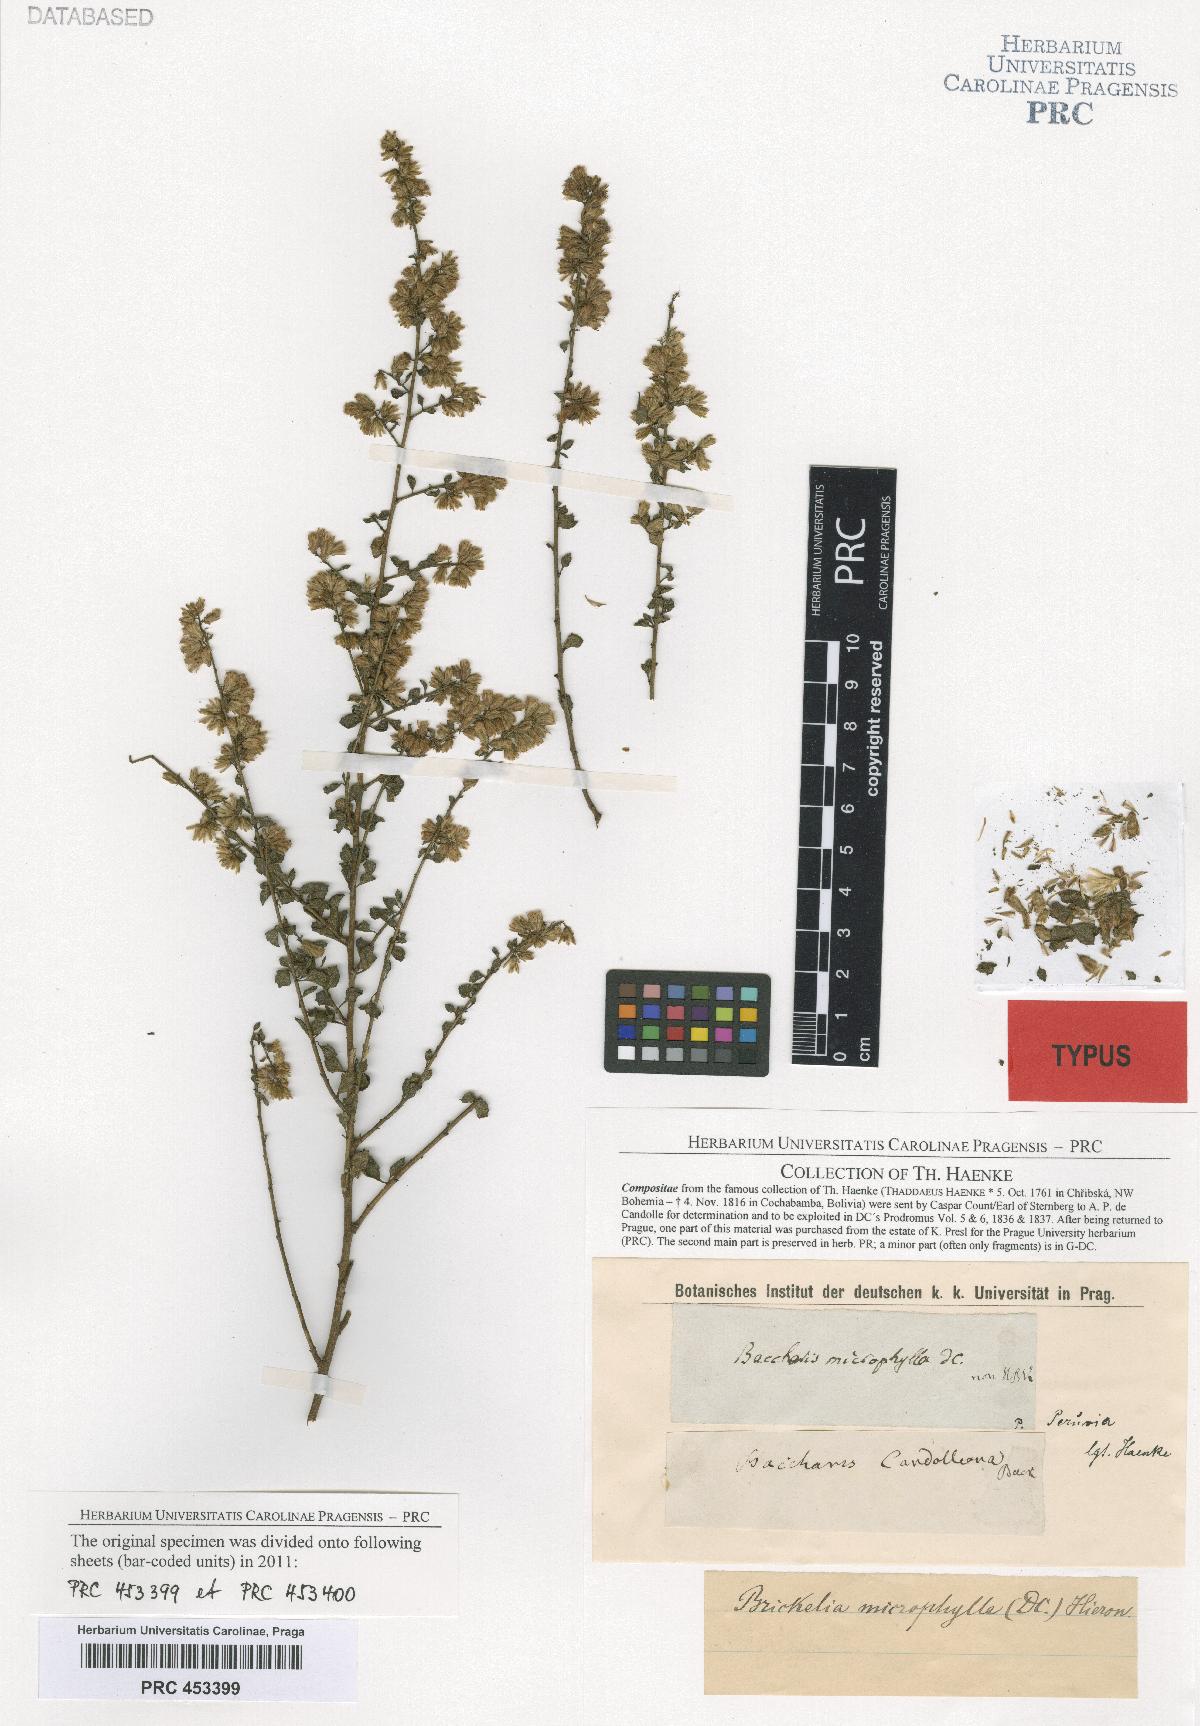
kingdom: Plantae
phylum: Tracheophyta
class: Magnoliopsida
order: Asterales
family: Asteraceae
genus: Nothobaccharis
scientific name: Nothobaccharis candolleana
